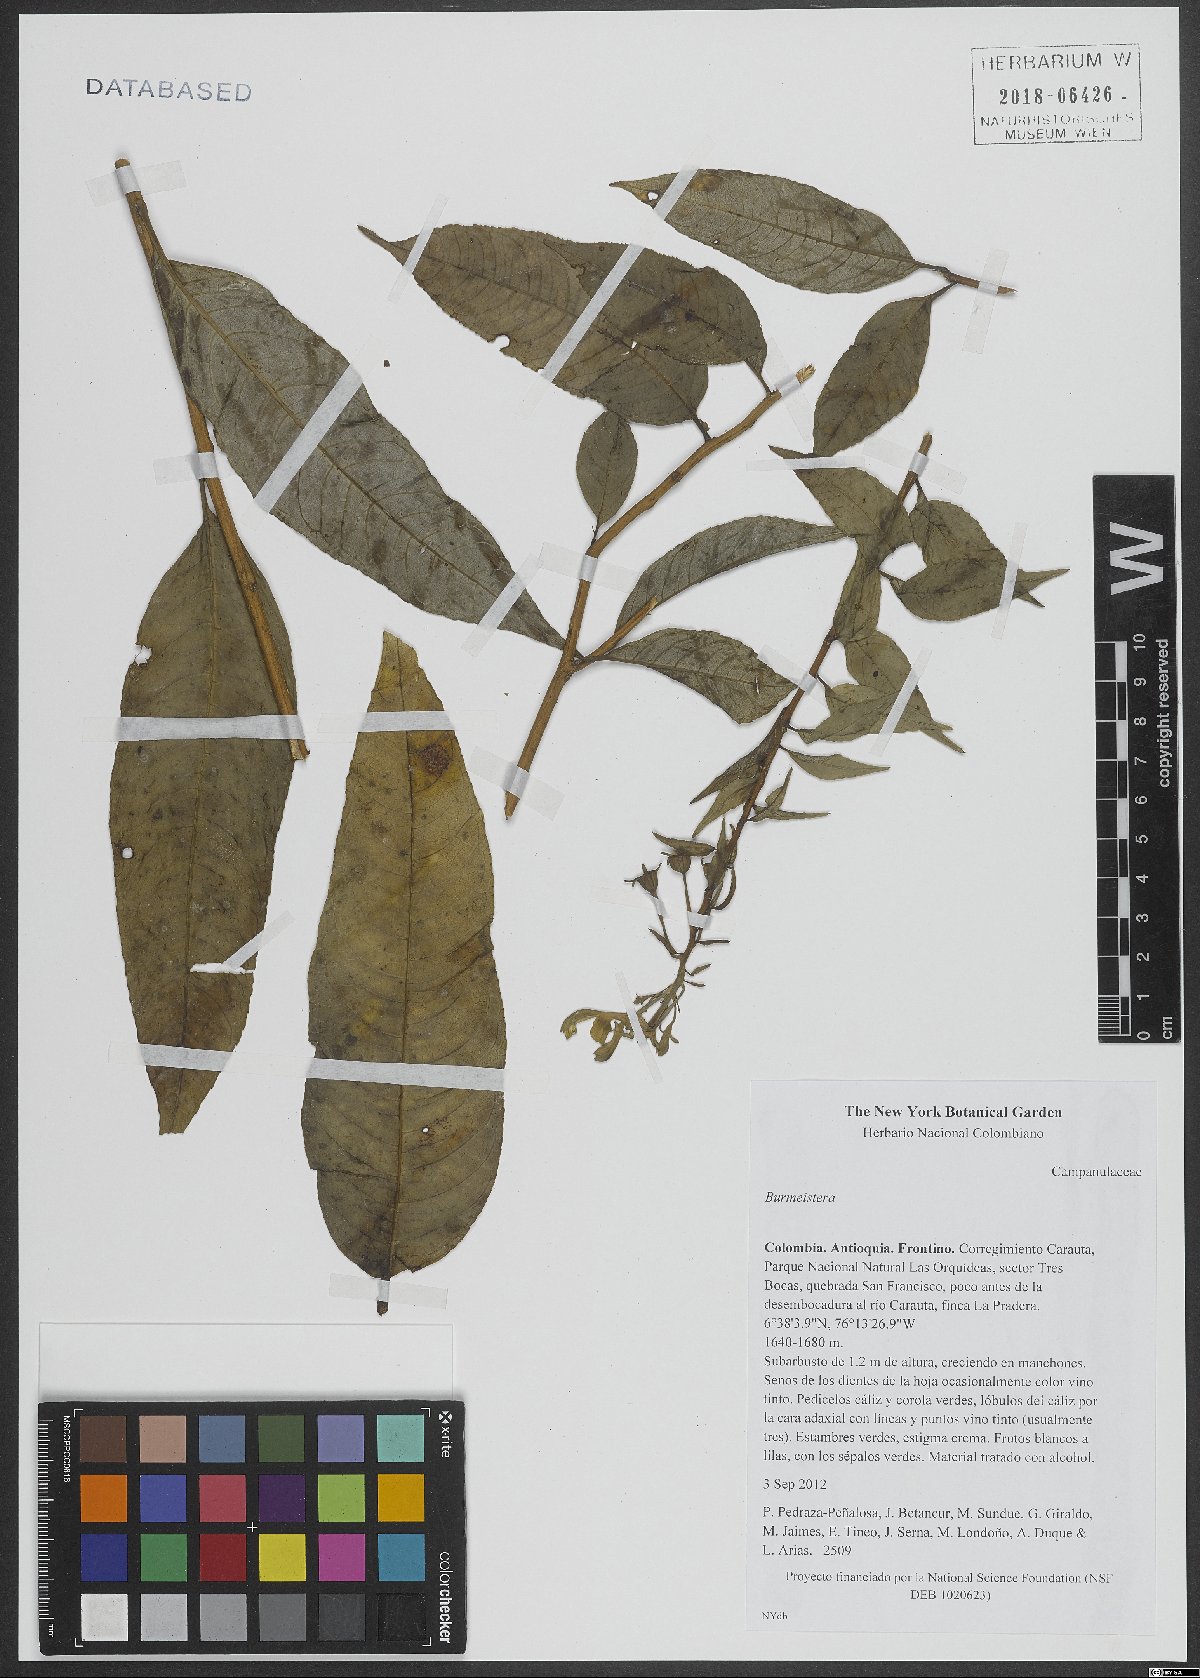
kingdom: Plantae
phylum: Tracheophyta
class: Magnoliopsida
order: Asterales
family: Campanulaceae
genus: Burmeistera
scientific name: Burmeistera
